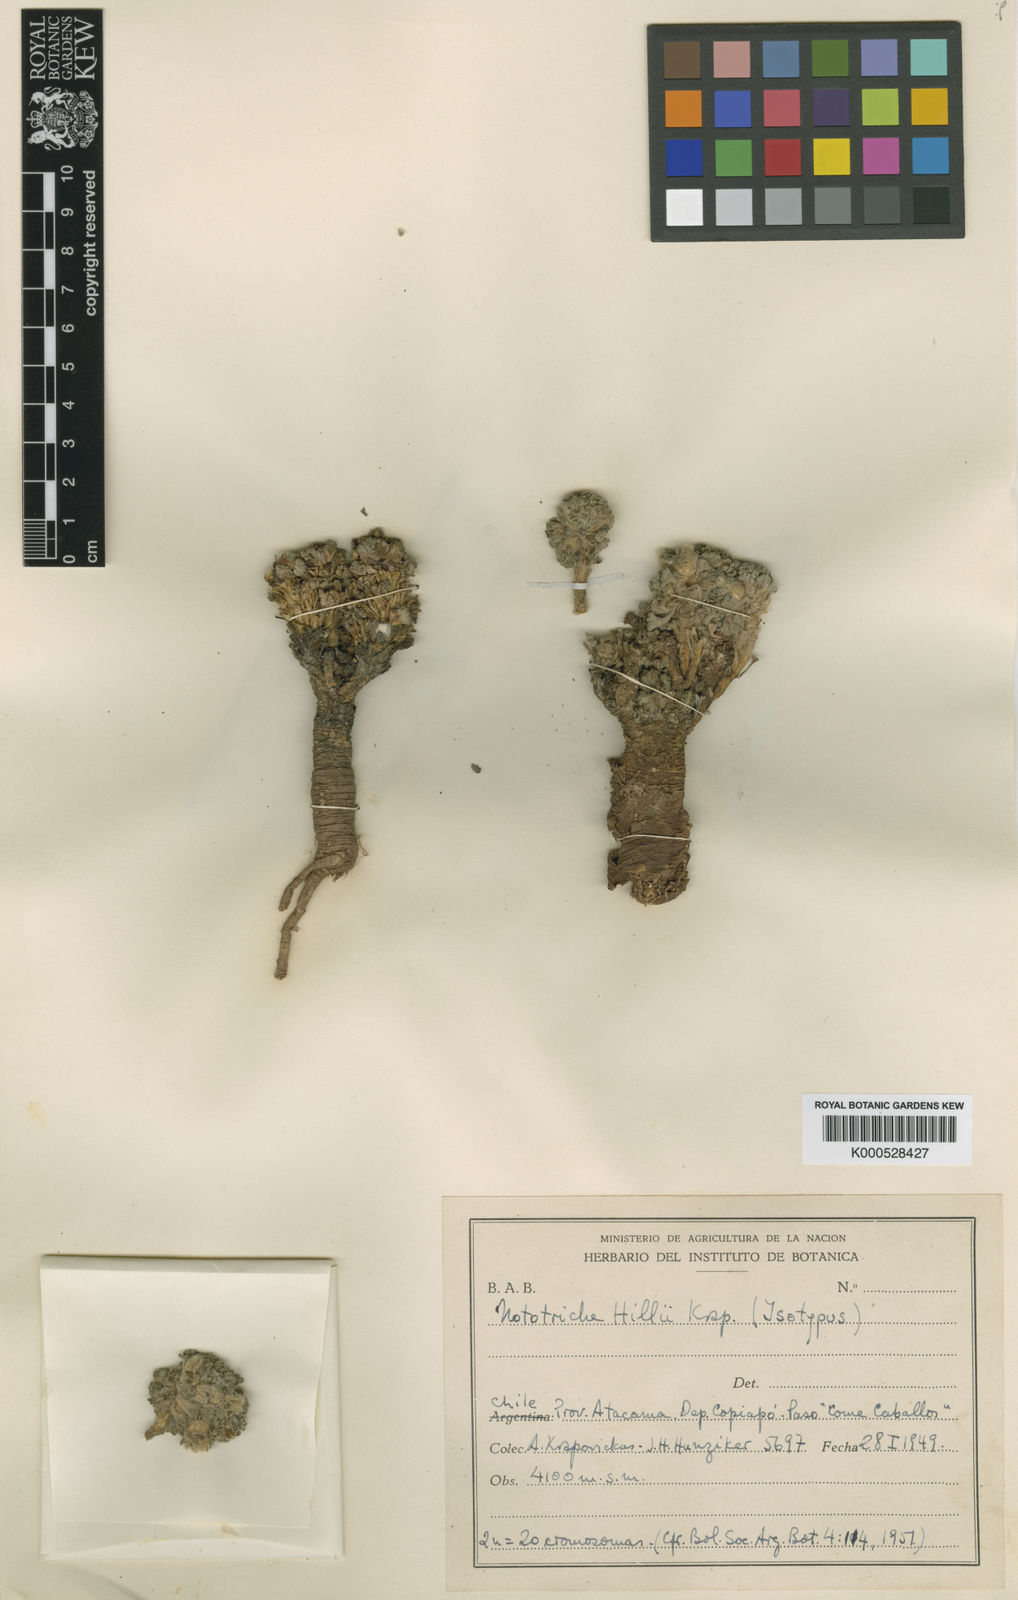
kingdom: Plantae
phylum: Tracheophyta
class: Magnoliopsida
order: Malvales
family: Malvaceae
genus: Nototriche
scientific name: Nototriche hillii
